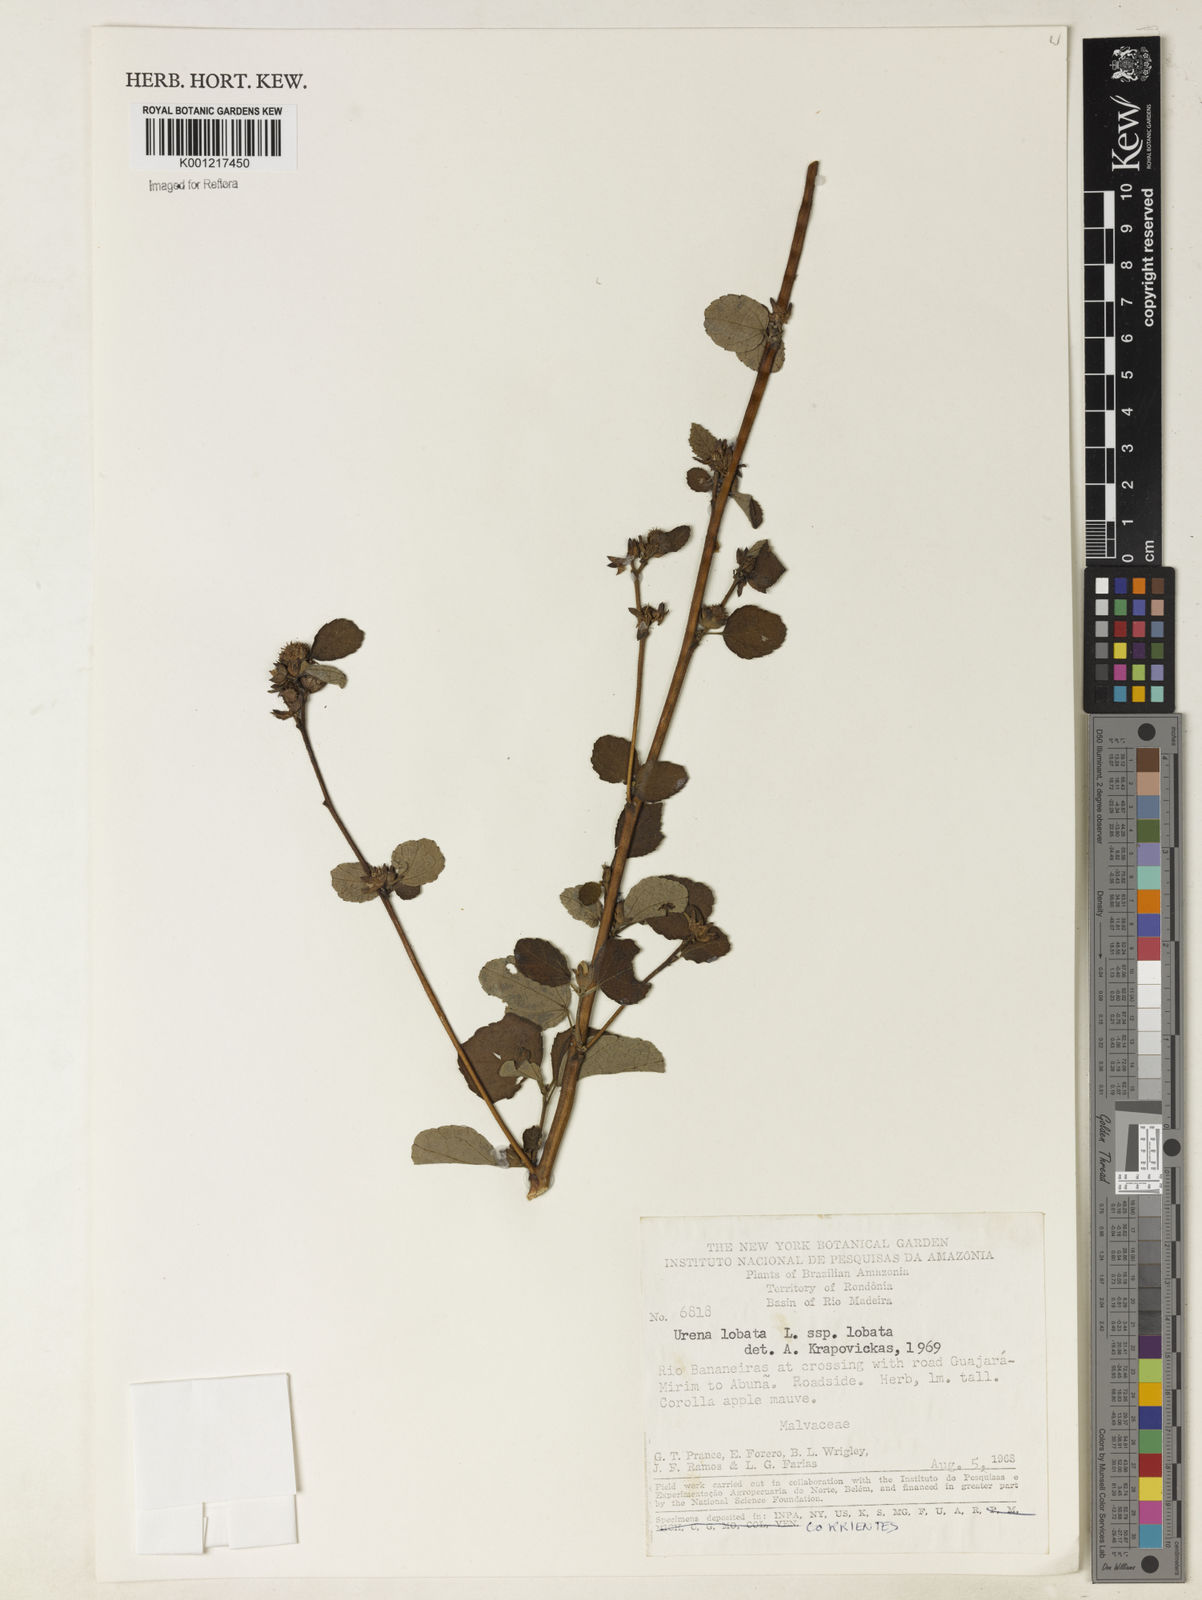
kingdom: Plantae
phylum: Tracheophyta
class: Magnoliopsida
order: Malvales
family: Malvaceae
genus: Urena
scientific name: Urena lobata
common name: Caesarweed
